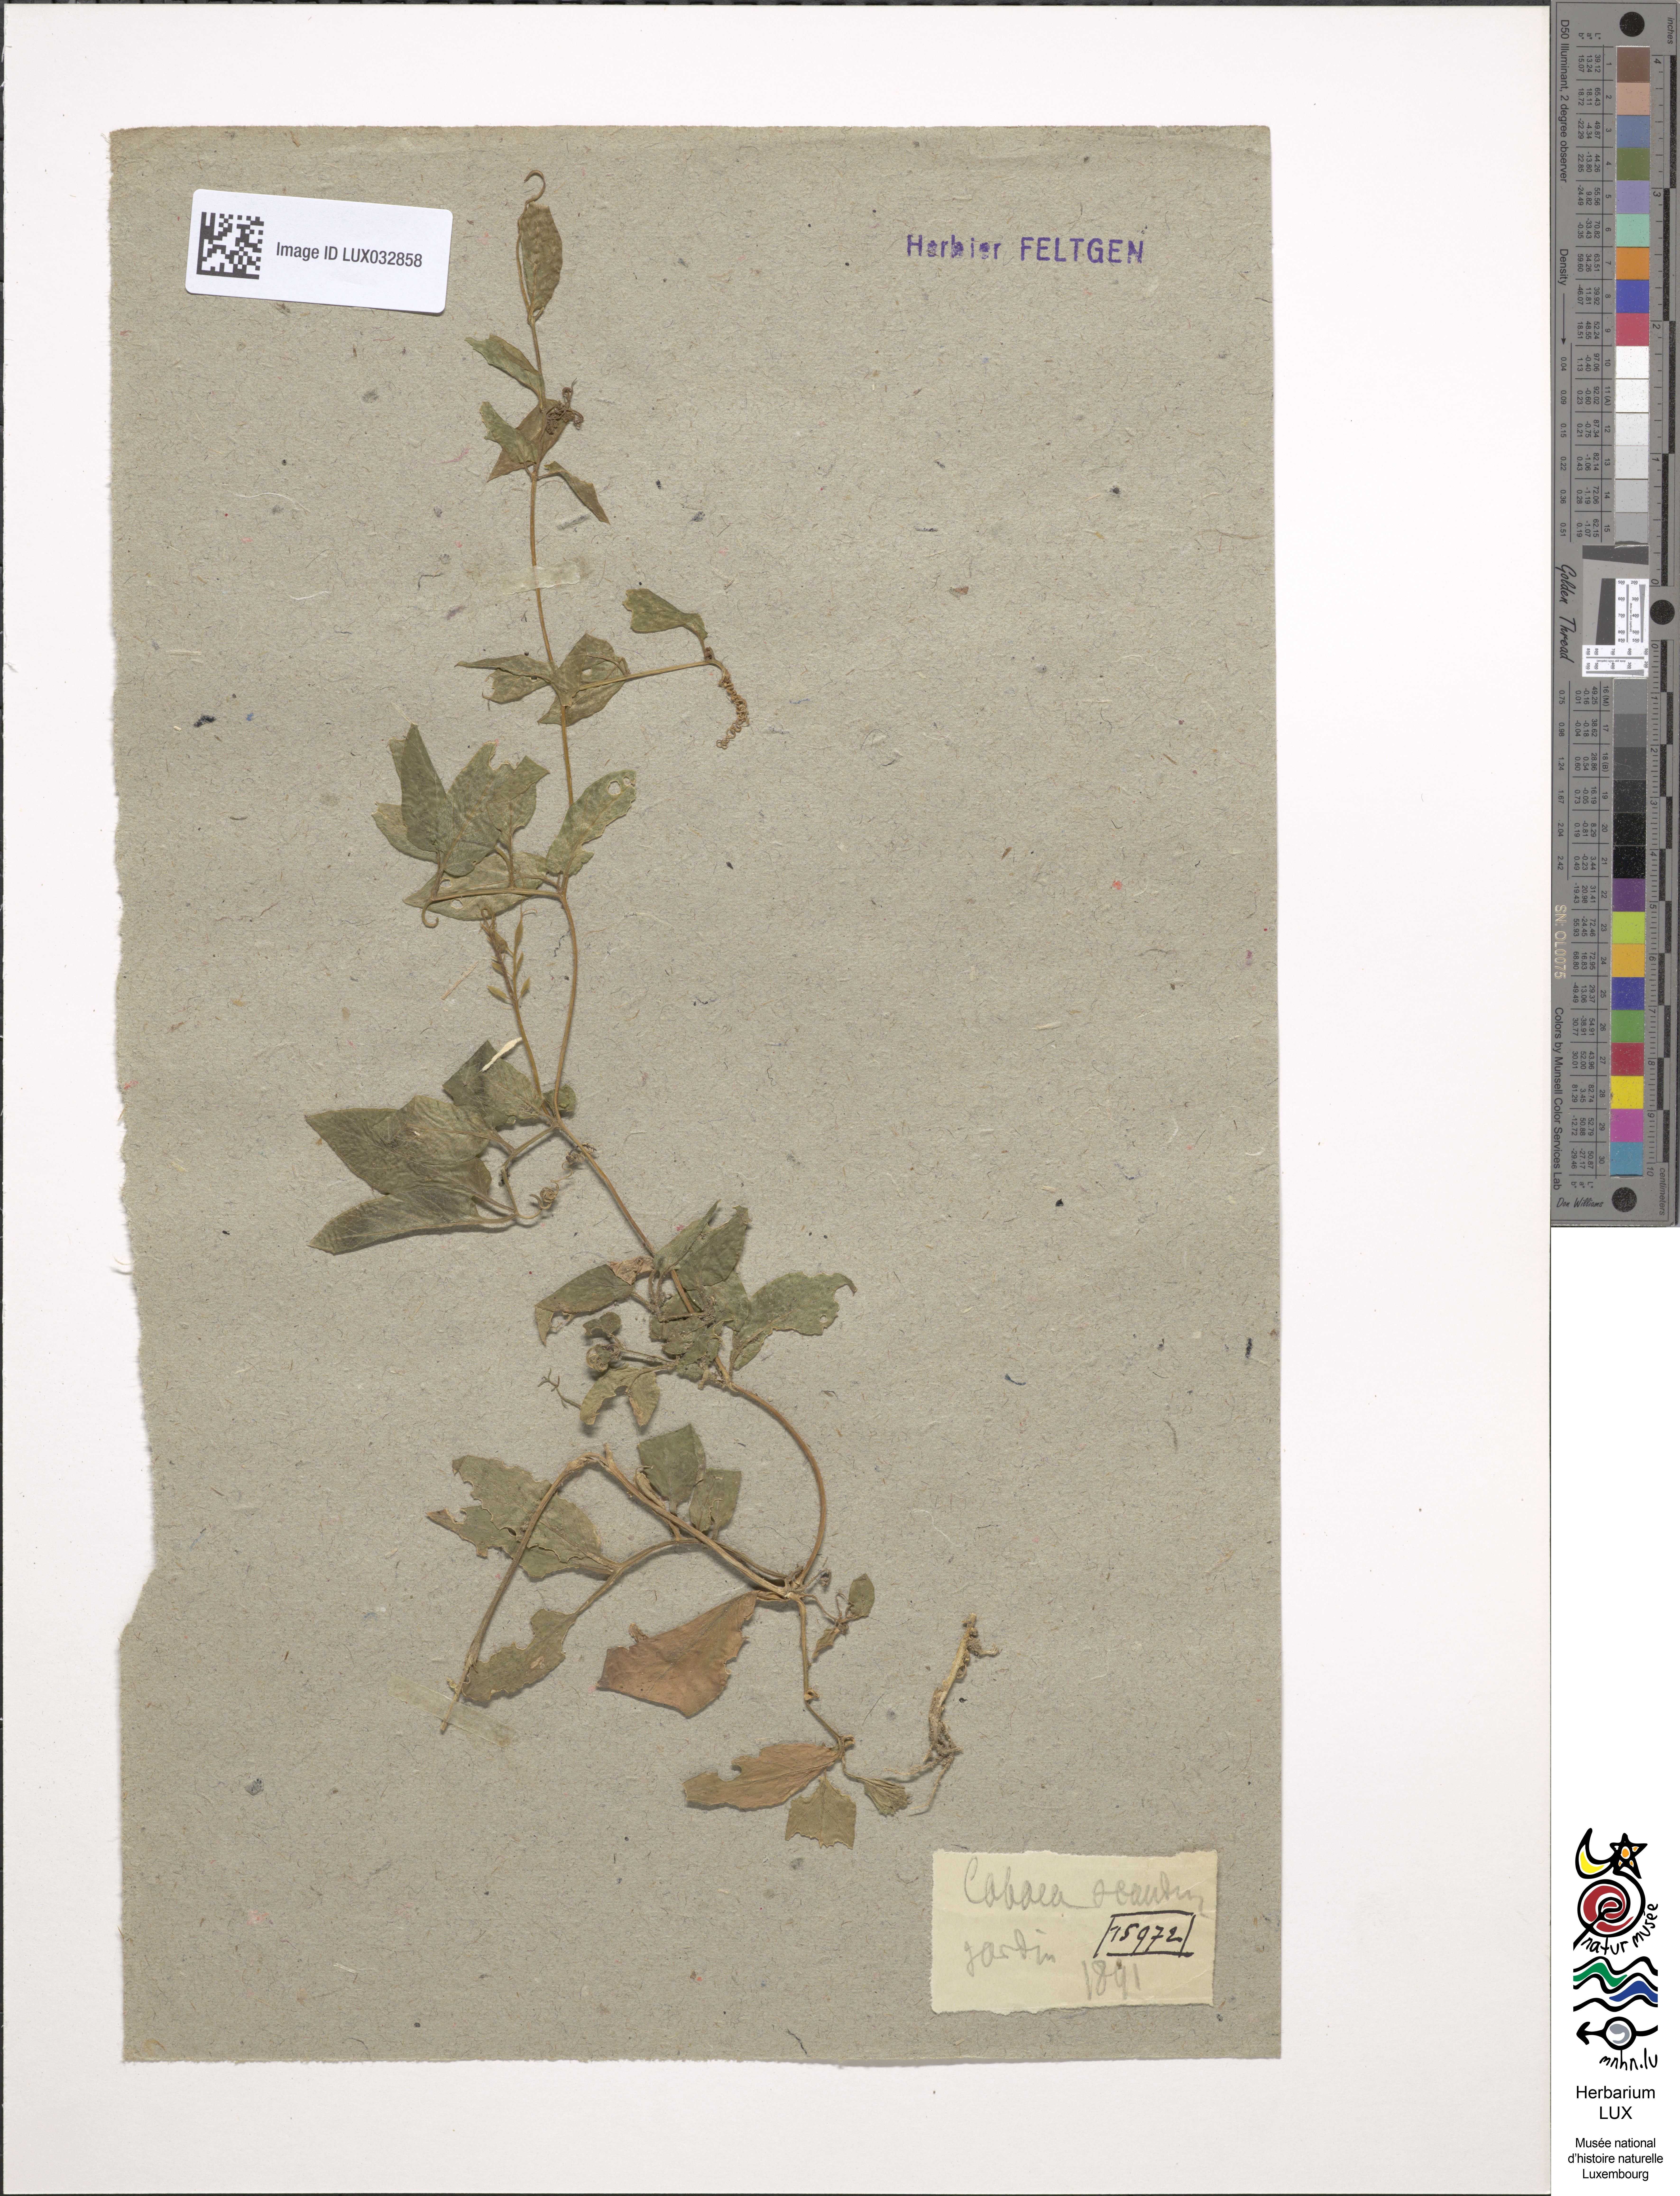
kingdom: Plantae
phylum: Tracheophyta
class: Magnoliopsida
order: Ericales
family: Polemoniaceae
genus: Cobaea
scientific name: Cobaea scandens
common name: Cup-and-saucer-vine
